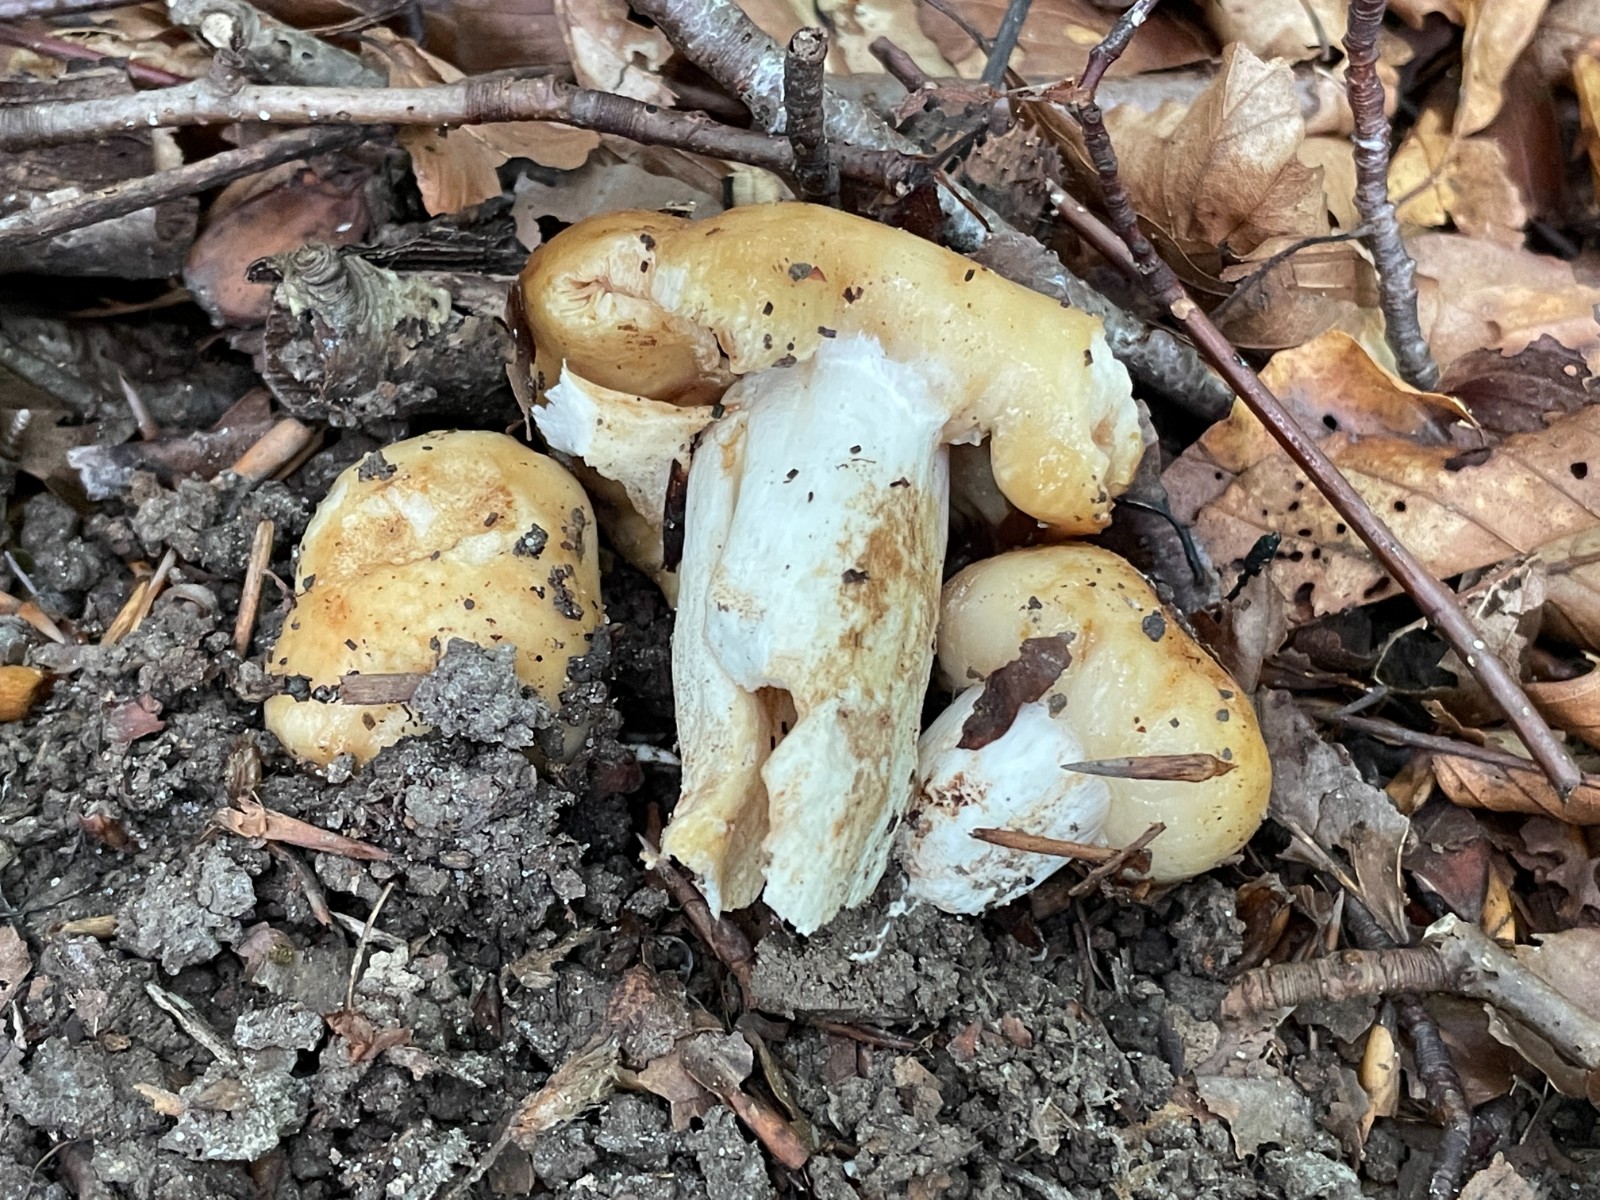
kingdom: Fungi
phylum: Basidiomycota
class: Agaricomycetes
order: Russulales
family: Russulaceae
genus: Russula
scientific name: Russula foetens
